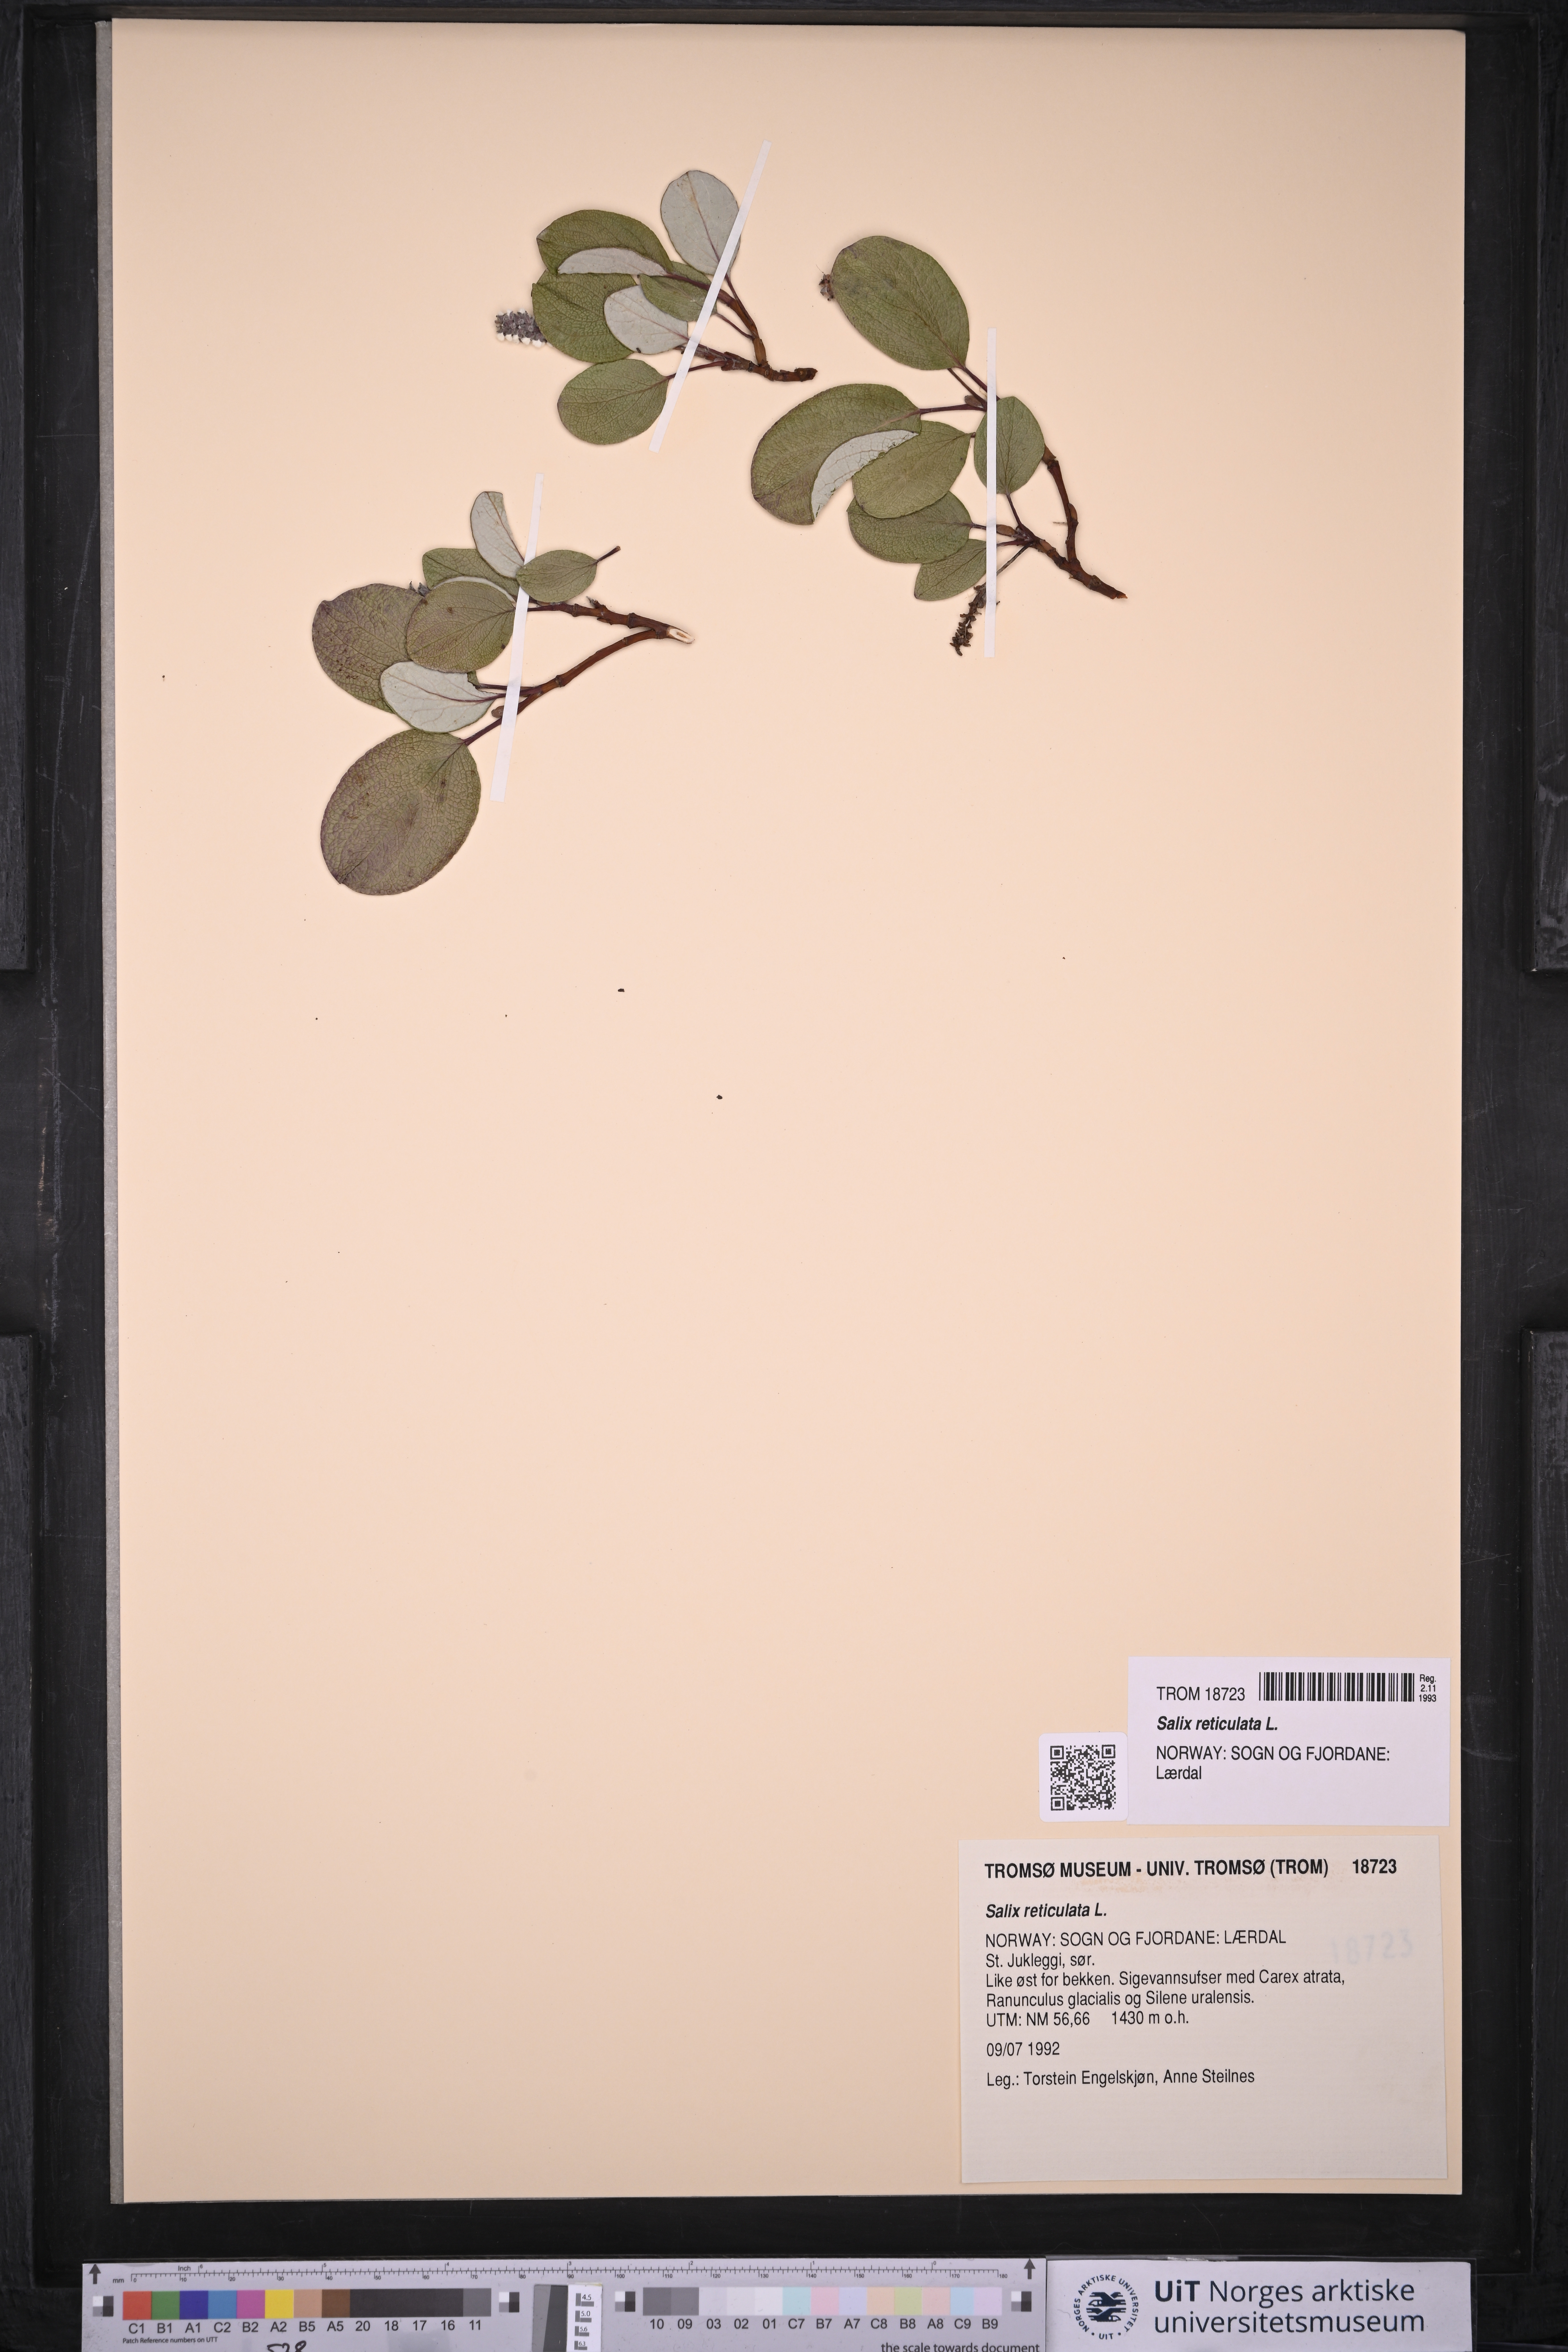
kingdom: Plantae
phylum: Tracheophyta
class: Magnoliopsida
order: Malpighiales
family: Salicaceae
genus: Salix
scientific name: Salix reticulata
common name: Net-leaved willow
